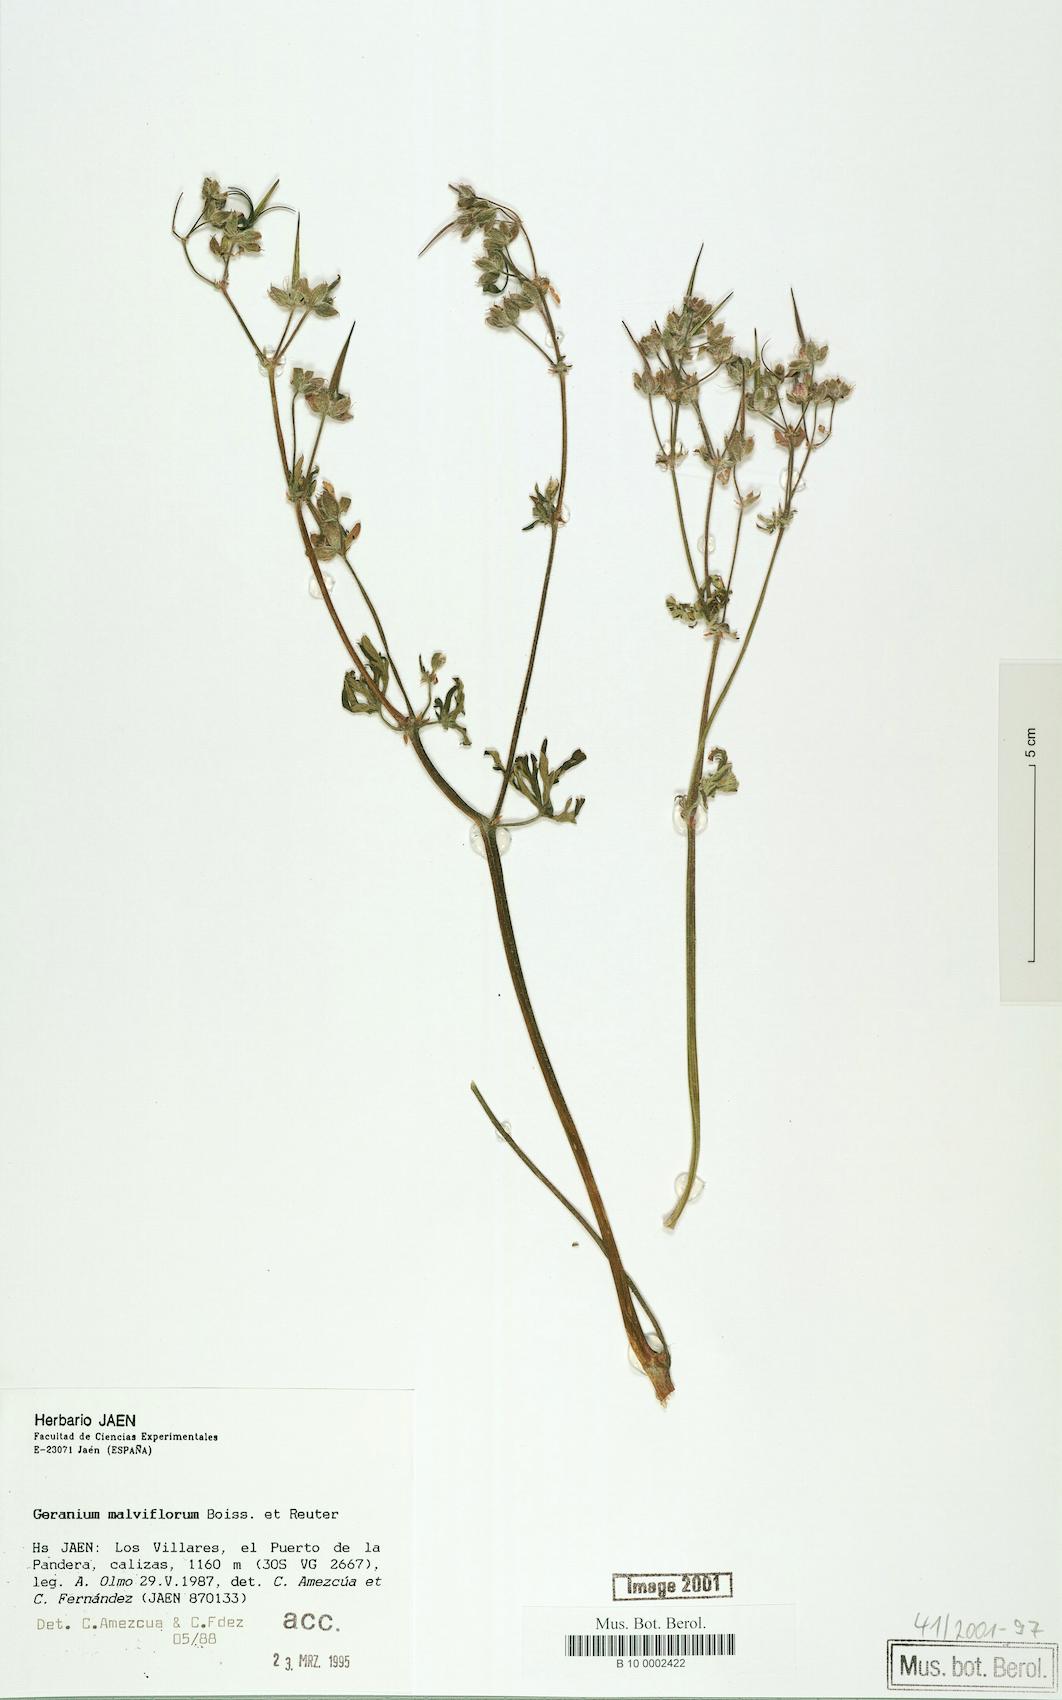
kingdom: Plantae
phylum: Tracheophyta
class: Magnoliopsida
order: Geraniales
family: Geraniaceae
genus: Geranium
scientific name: Geranium malviflorum
